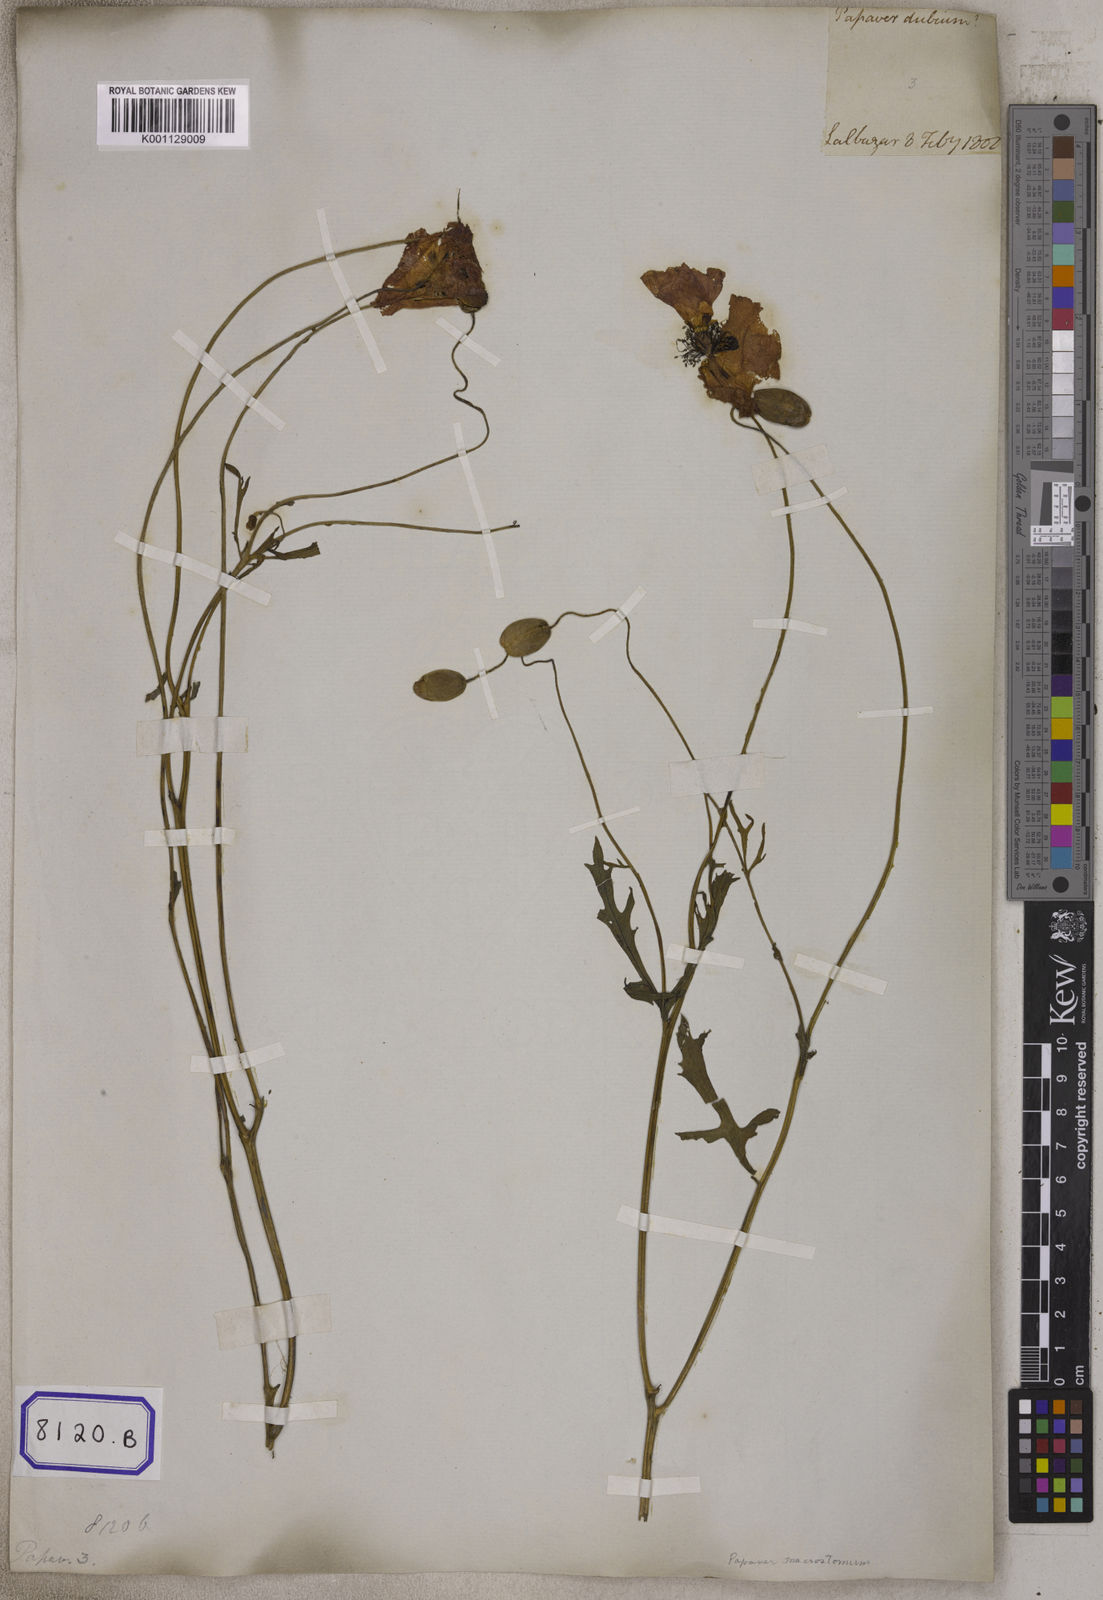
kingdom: Plantae
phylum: Tracheophyta
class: Magnoliopsida
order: Ranunculales
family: Papaveraceae
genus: Papaver
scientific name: Papaver rhoeas
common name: Corn poppy
